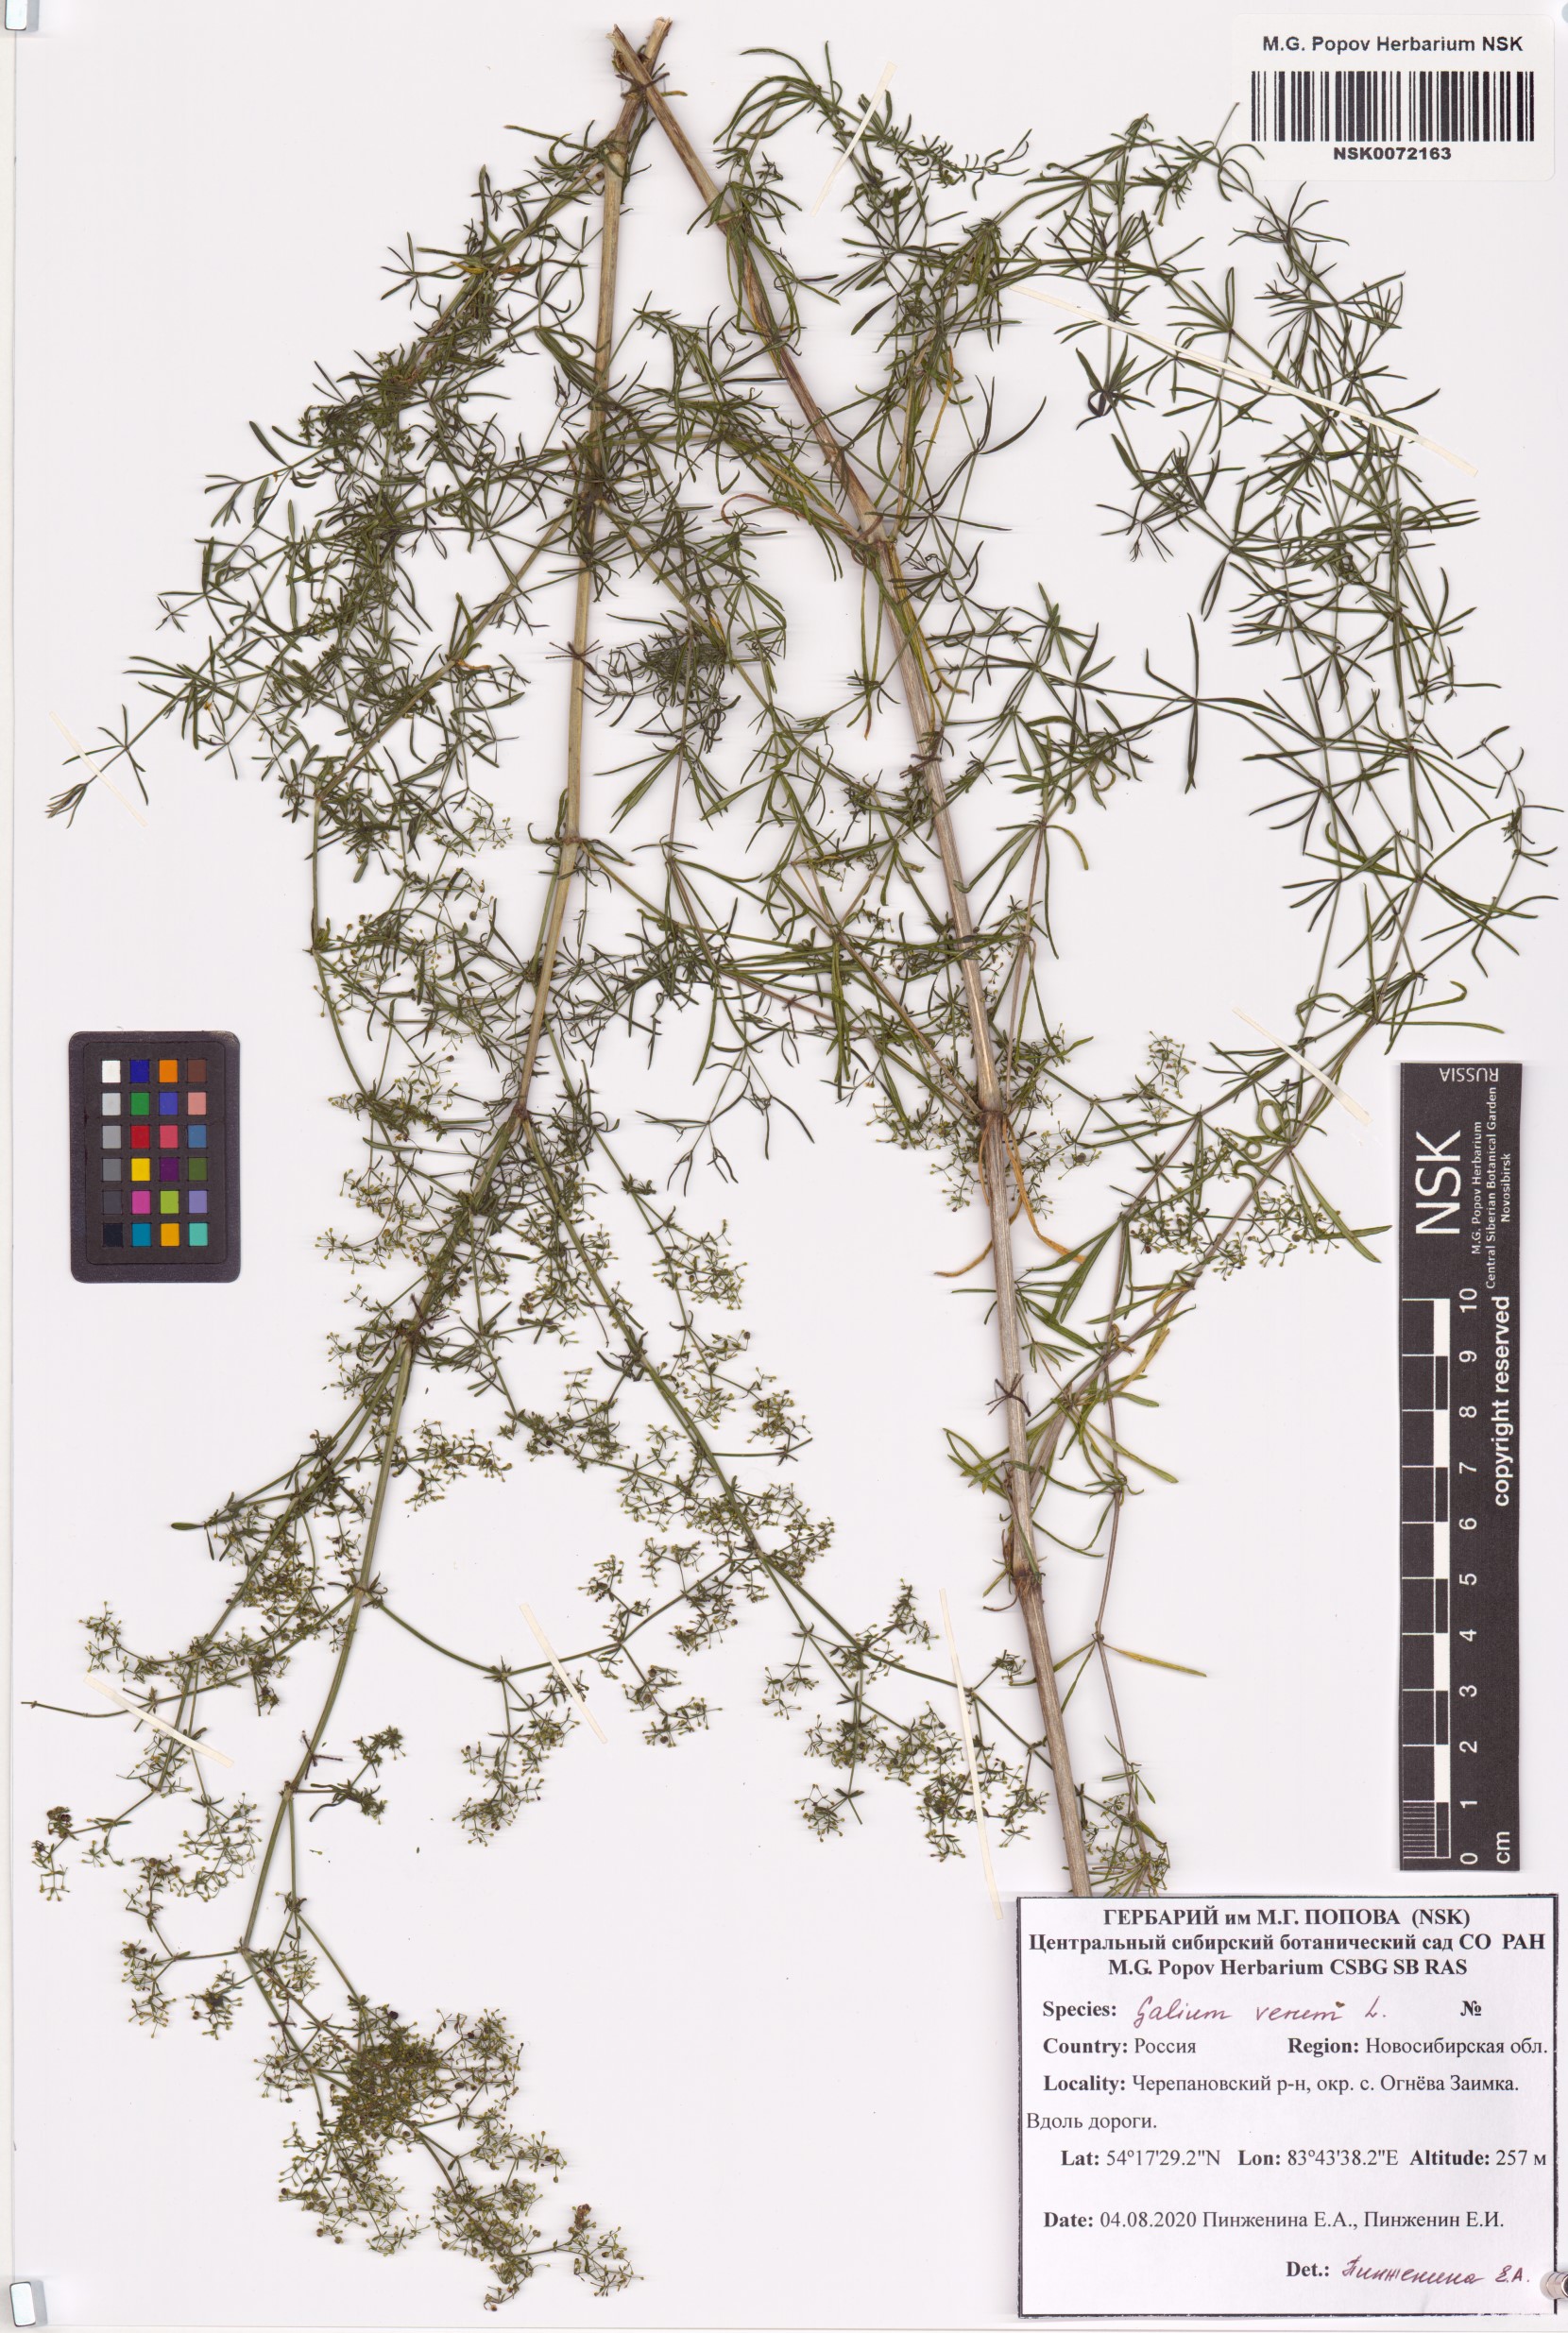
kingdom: Plantae
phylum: Tracheophyta
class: Magnoliopsida
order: Gentianales
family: Rubiaceae
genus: Galium
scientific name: Galium verum
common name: Lady's bedstraw
